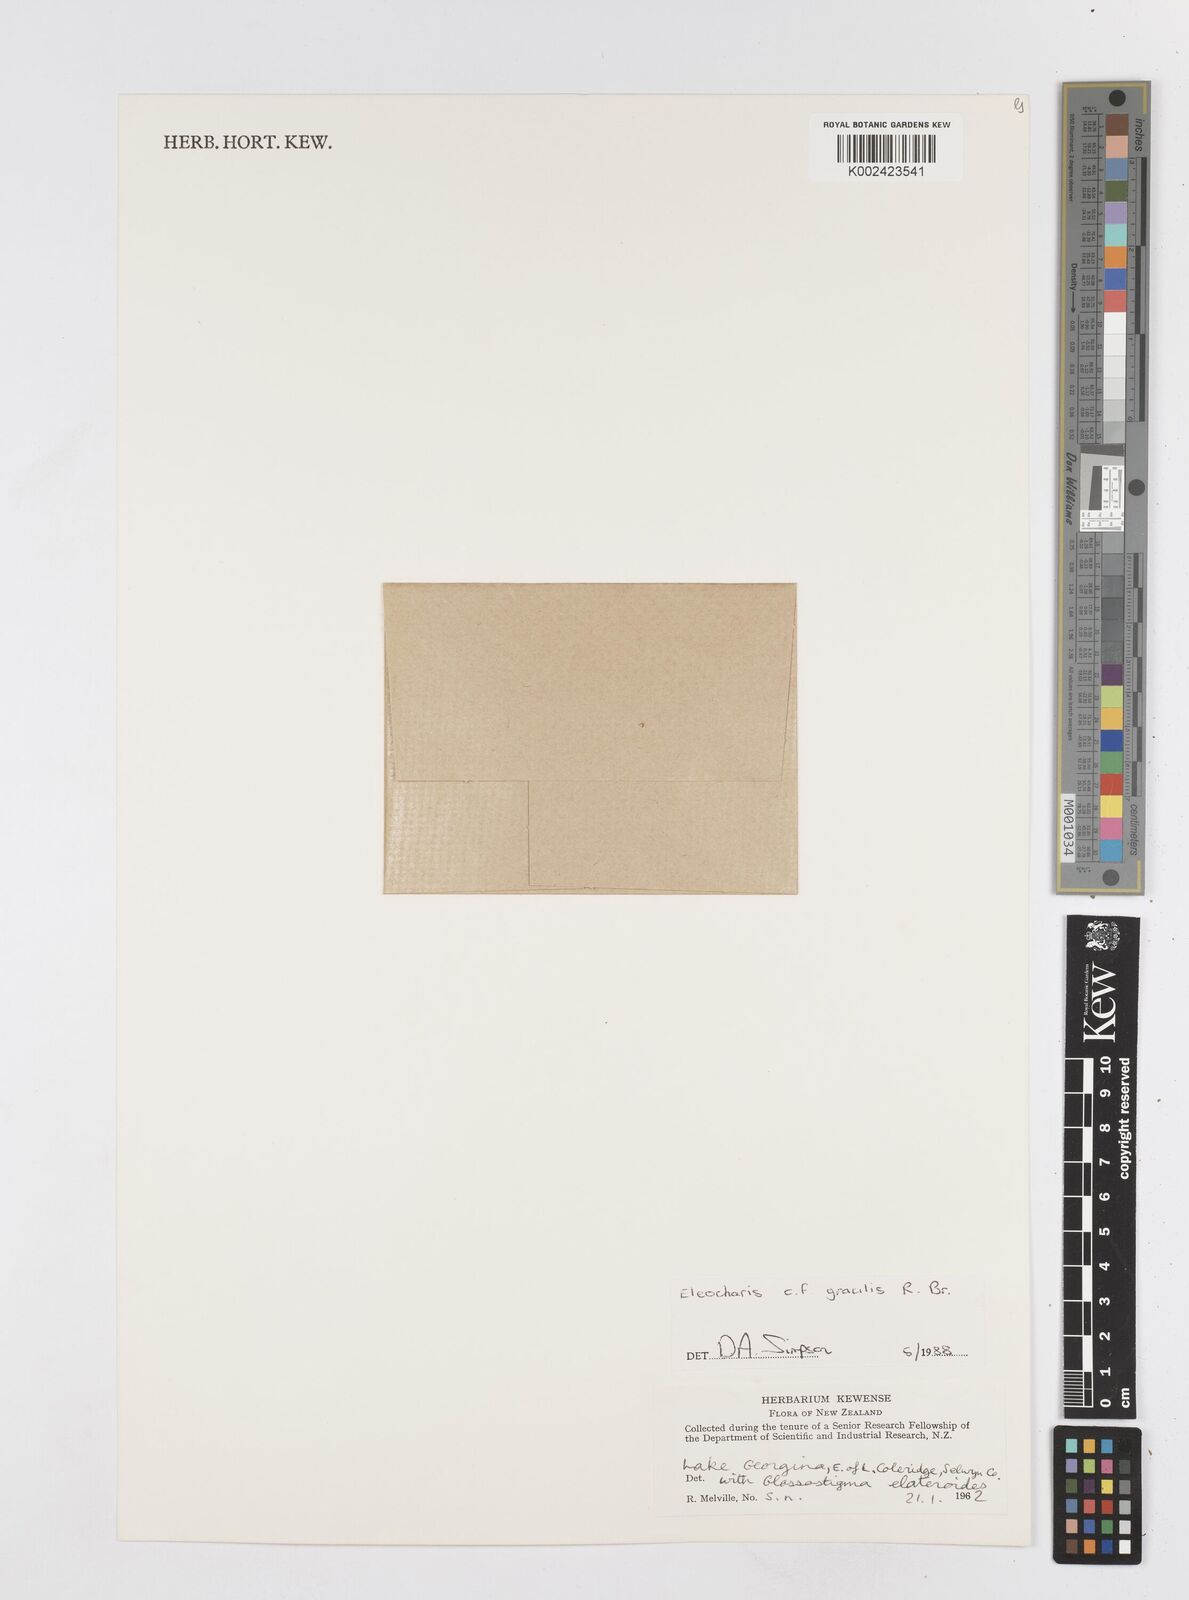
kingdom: Plantae
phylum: Tracheophyta
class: Liliopsida
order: Poales
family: Cyperaceae
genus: Eleocharis
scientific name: Eleocharis multicaulis
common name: Many-stalked spike-rush
